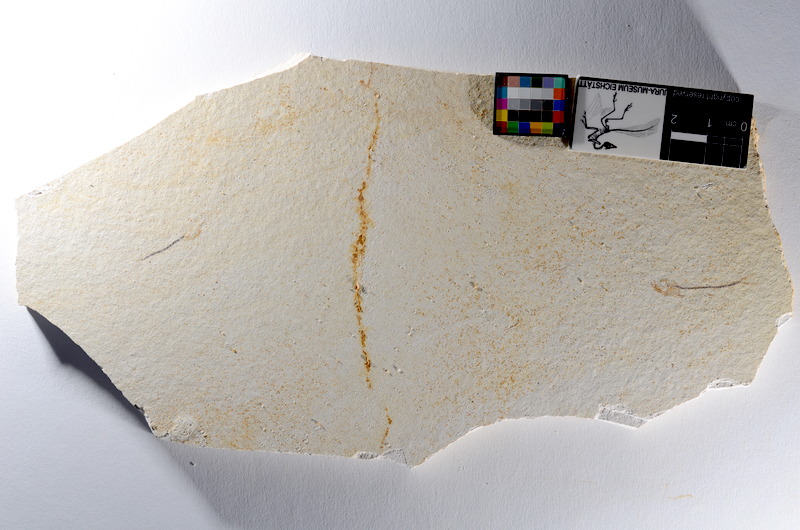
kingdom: Animalia
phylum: Chordata
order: Salmoniformes
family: Orthogonikleithridae
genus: Orthogonikleithrus
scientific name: Orthogonikleithrus hoelli
